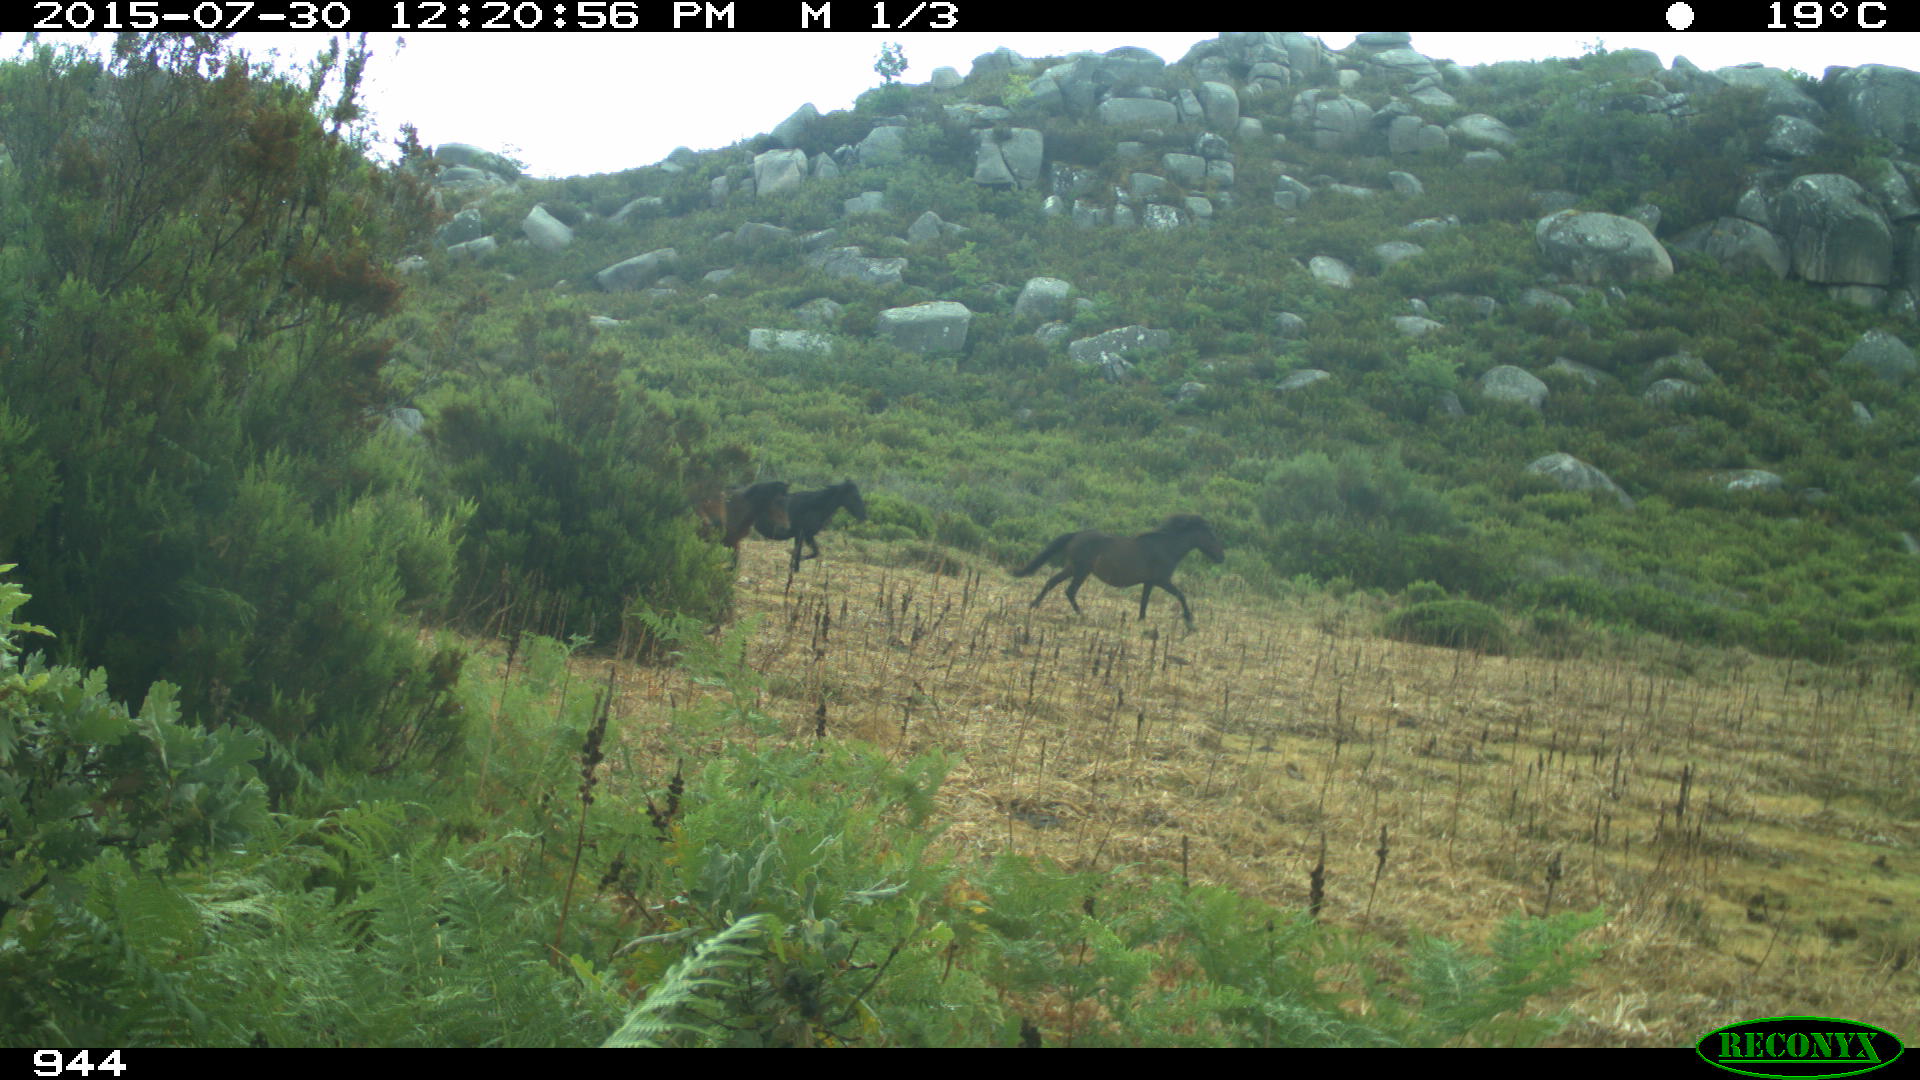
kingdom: Animalia
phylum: Chordata
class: Mammalia
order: Perissodactyla
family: Equidae
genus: Equus
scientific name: Equus caballus
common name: Horse
